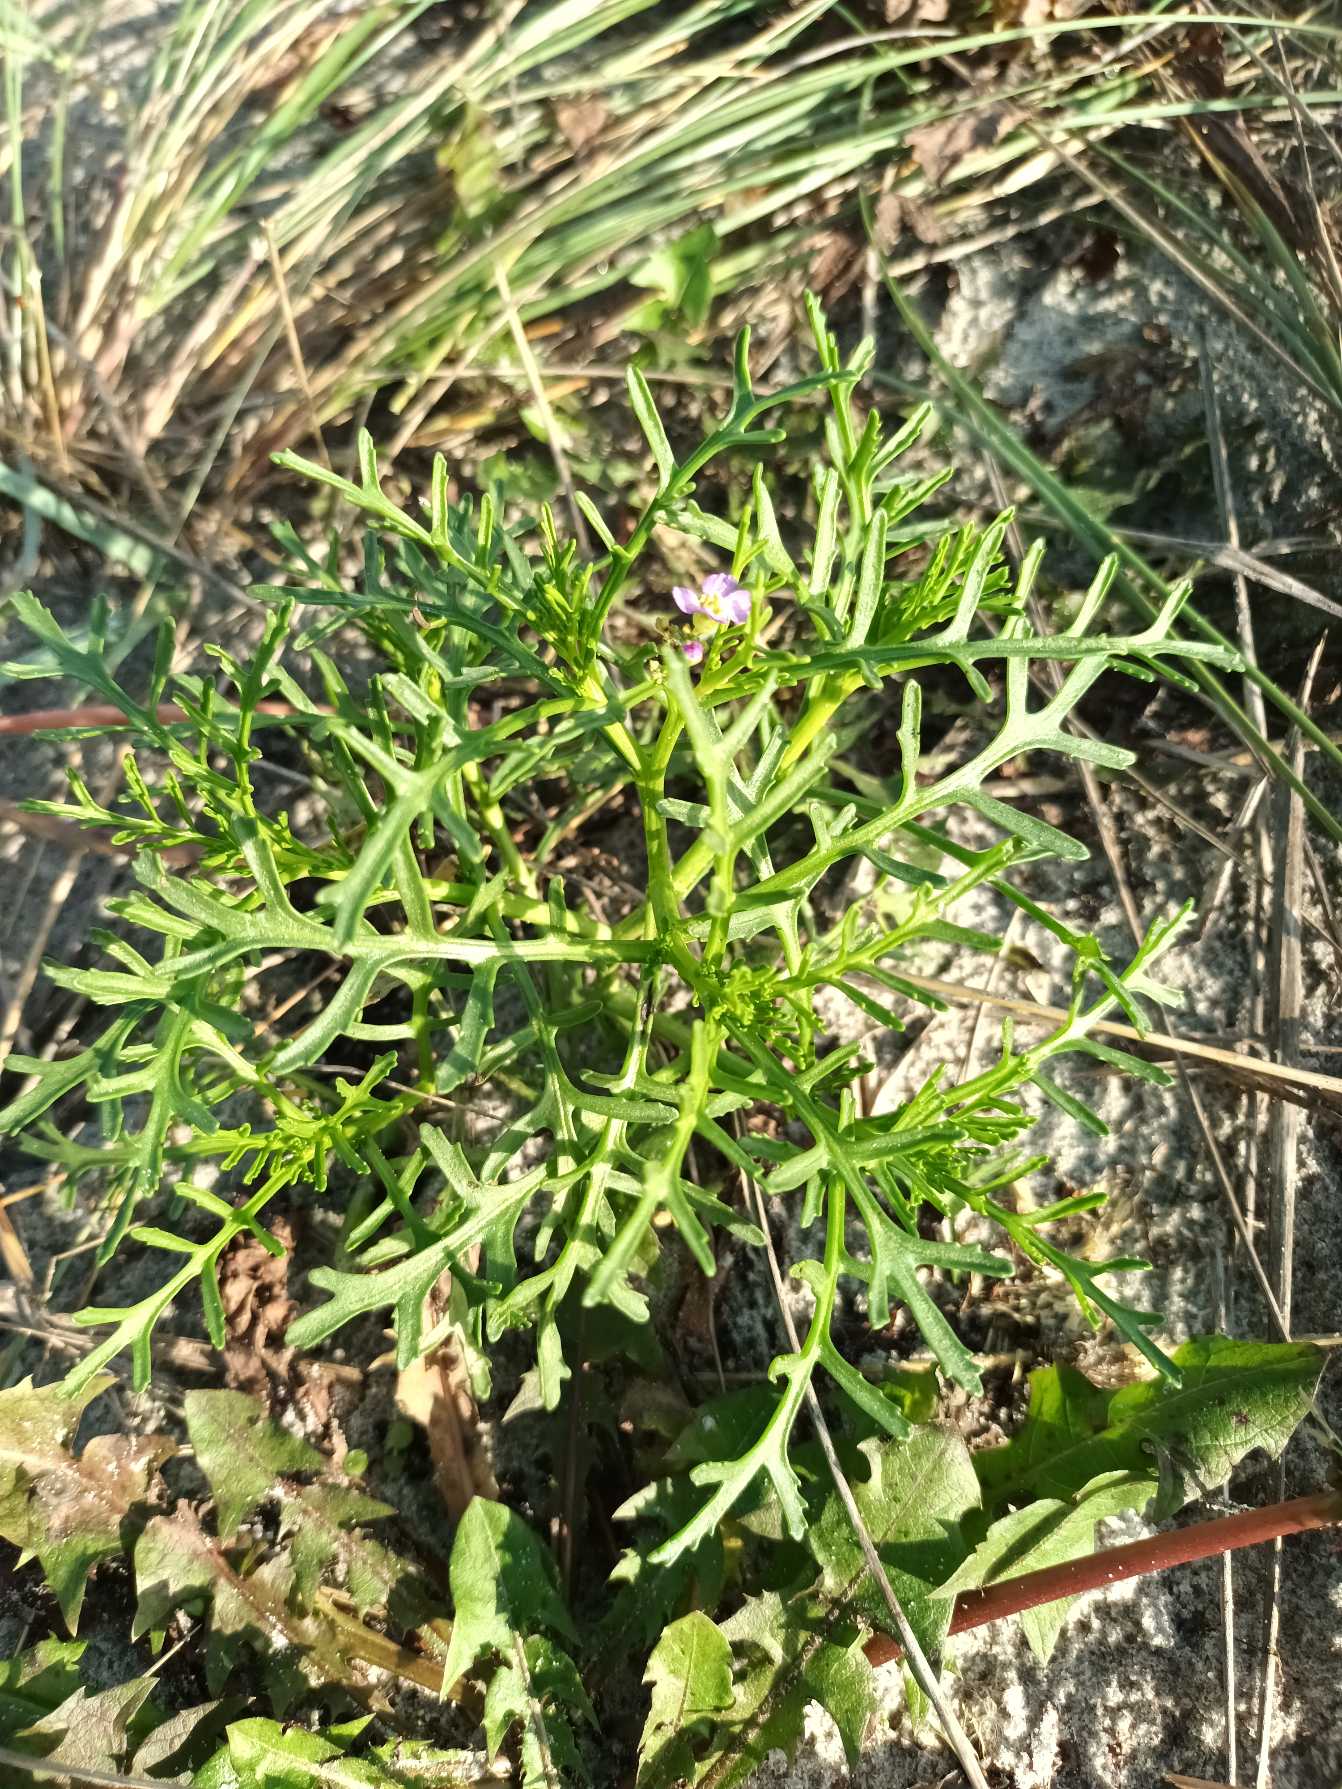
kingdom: Plantae
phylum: Tracheophyta
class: Magnoliopsida
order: Brassicales
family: Brassicaceae
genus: Cakile
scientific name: Cakile maritima
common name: Strandsennep
